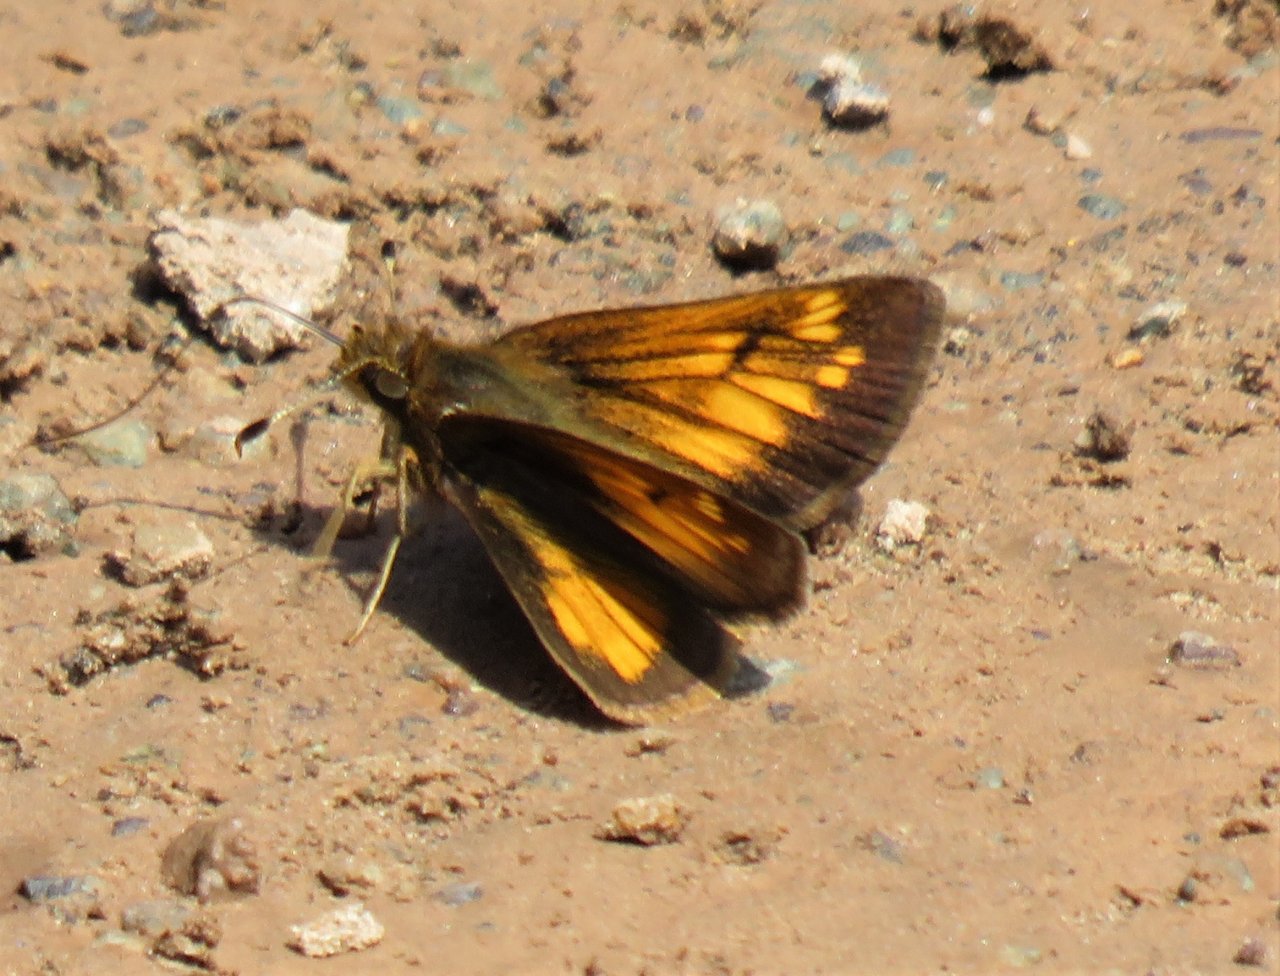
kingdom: Animalia
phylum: Arthropoda
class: Insecta
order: Lepidoptera
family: Hesperiidae
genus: Lon
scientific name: Lon hobomok
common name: Hobomok Skipper
